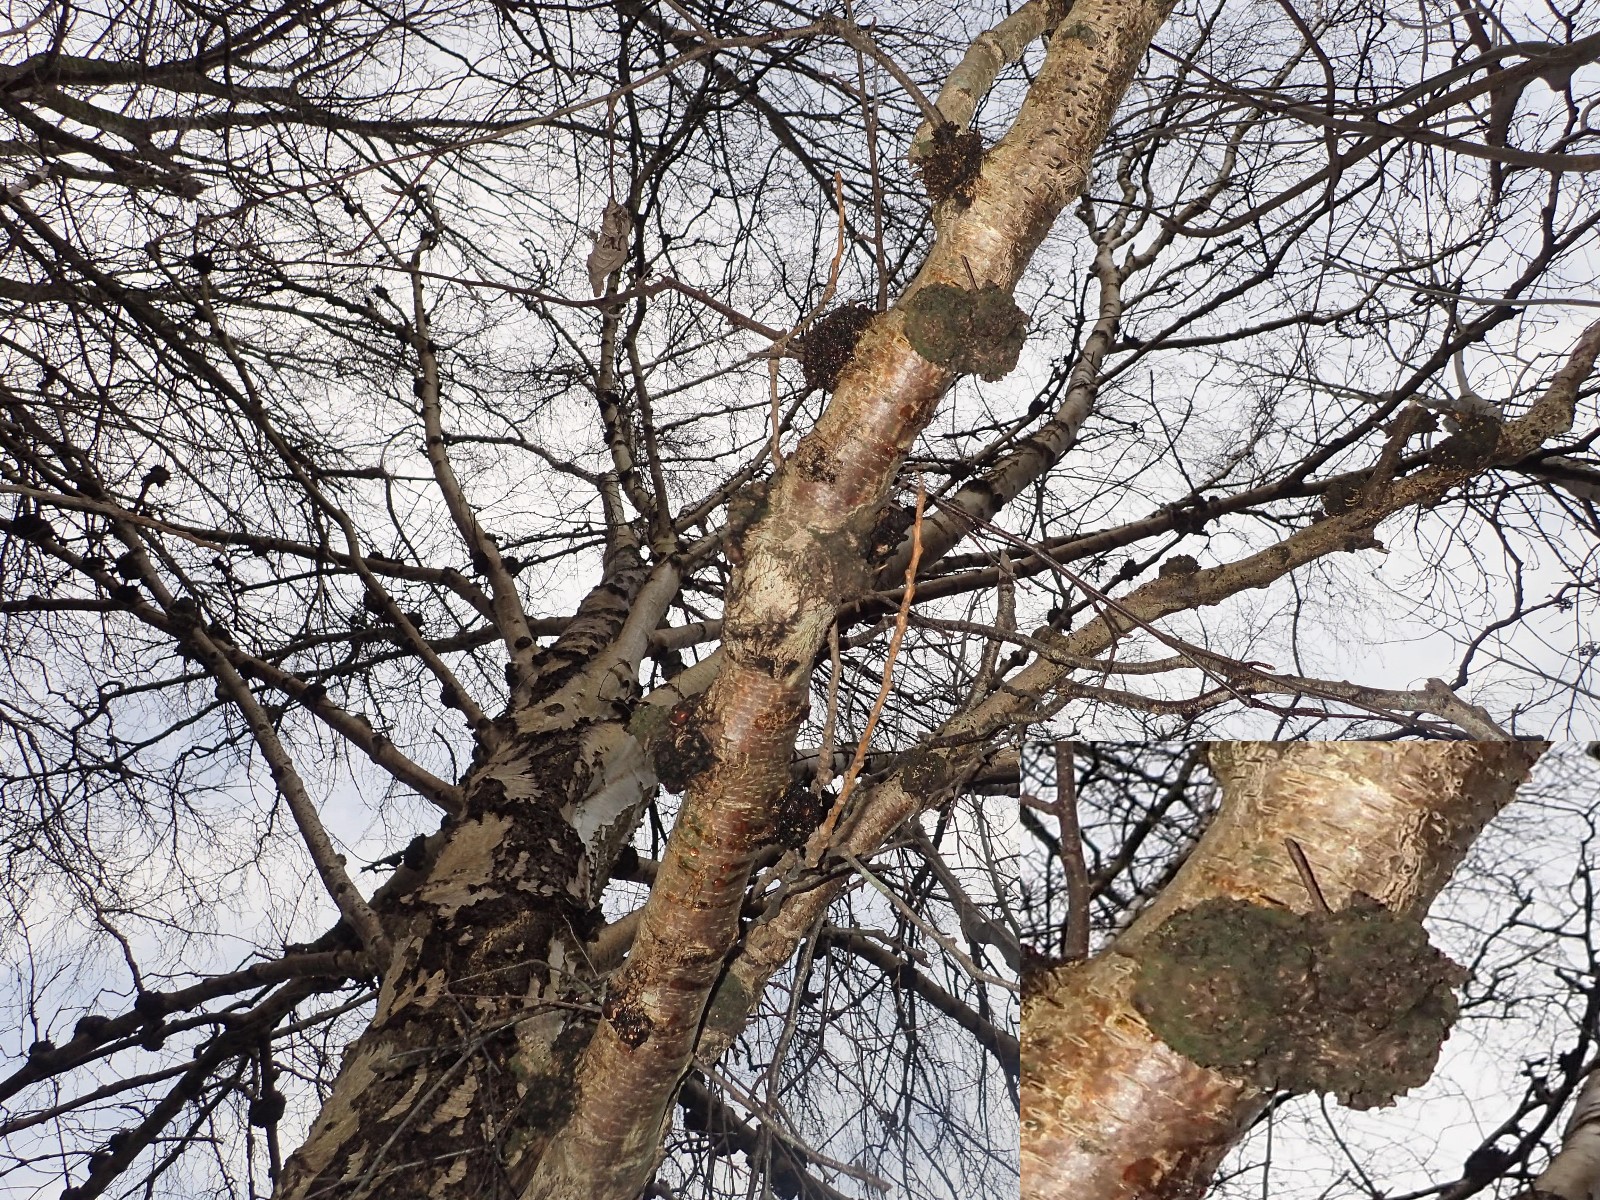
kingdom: Fungi
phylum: Basidiomycota
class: Agaricomycetes
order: Hymenochaetales
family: Hymenochaetaceae
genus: Inonotus
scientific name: Inonotus obliquus
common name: birke-spejlporesvamp
